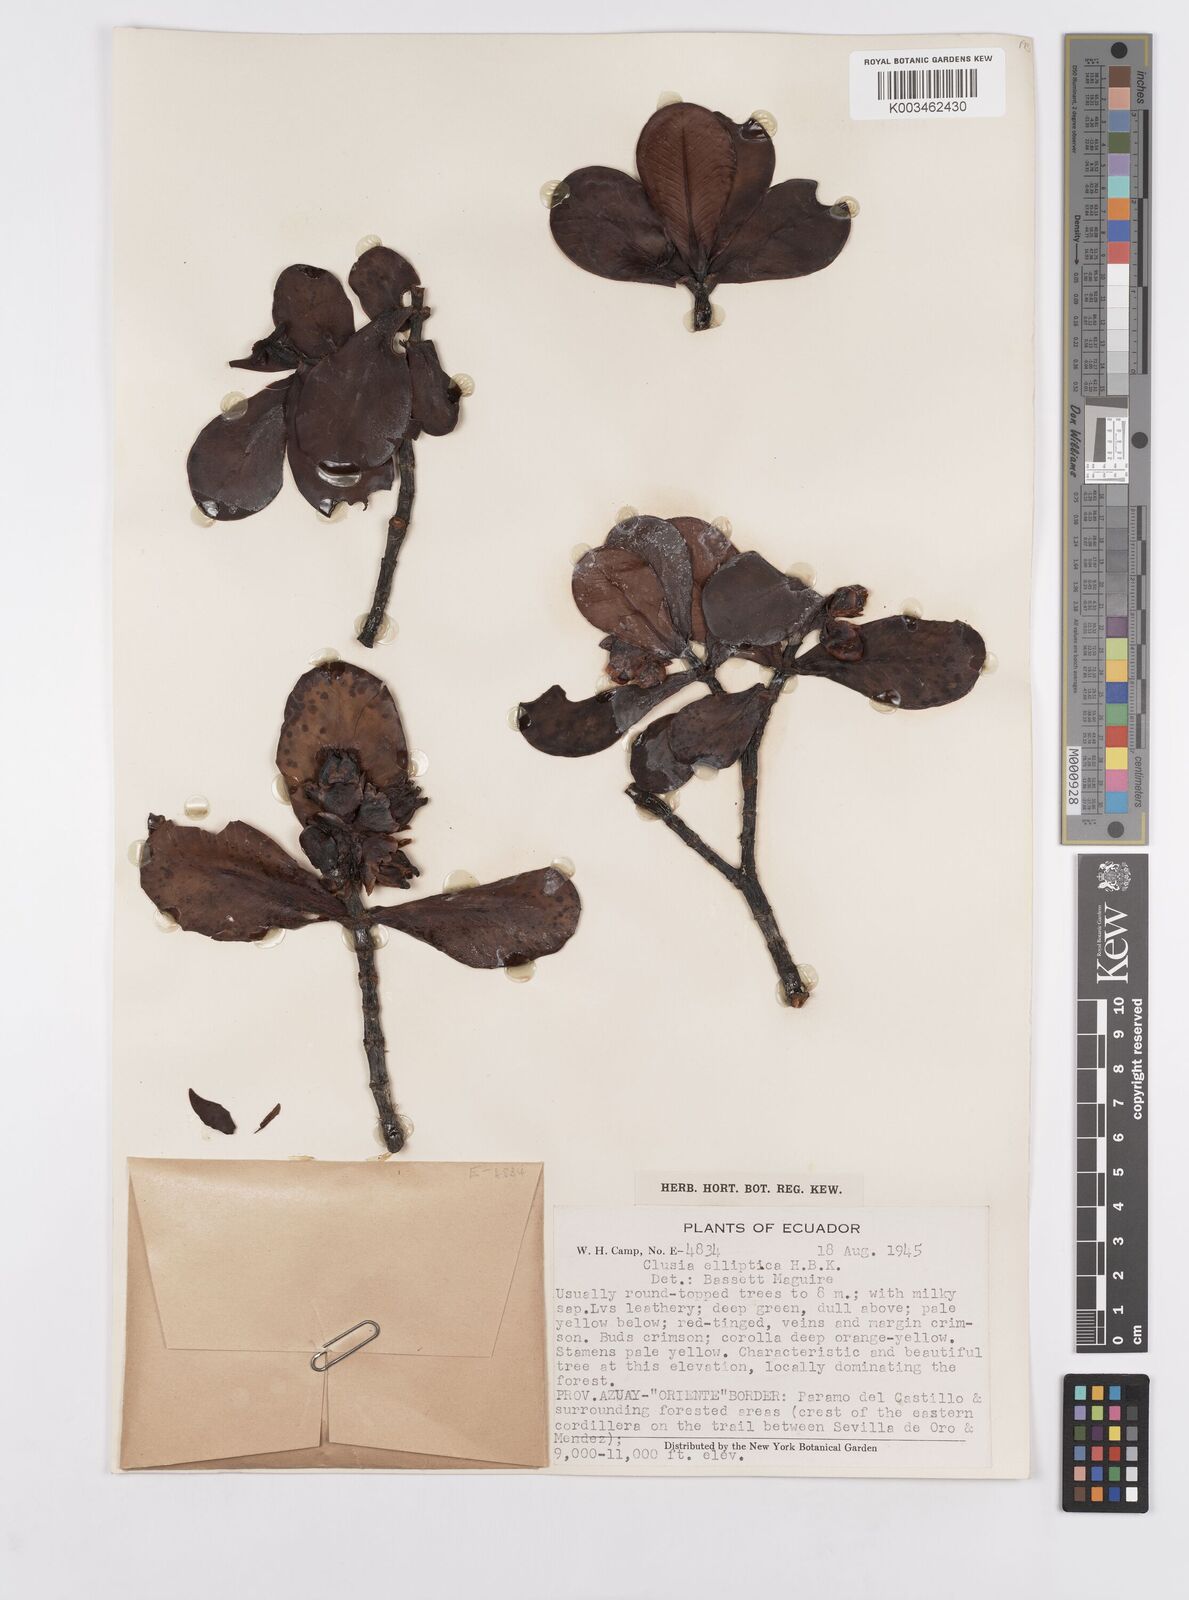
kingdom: Plantae
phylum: Tracheophyta
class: Magnoliopsida
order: Malpighiales
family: Clusiaceae
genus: Clusia
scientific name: Clusia elliptica
